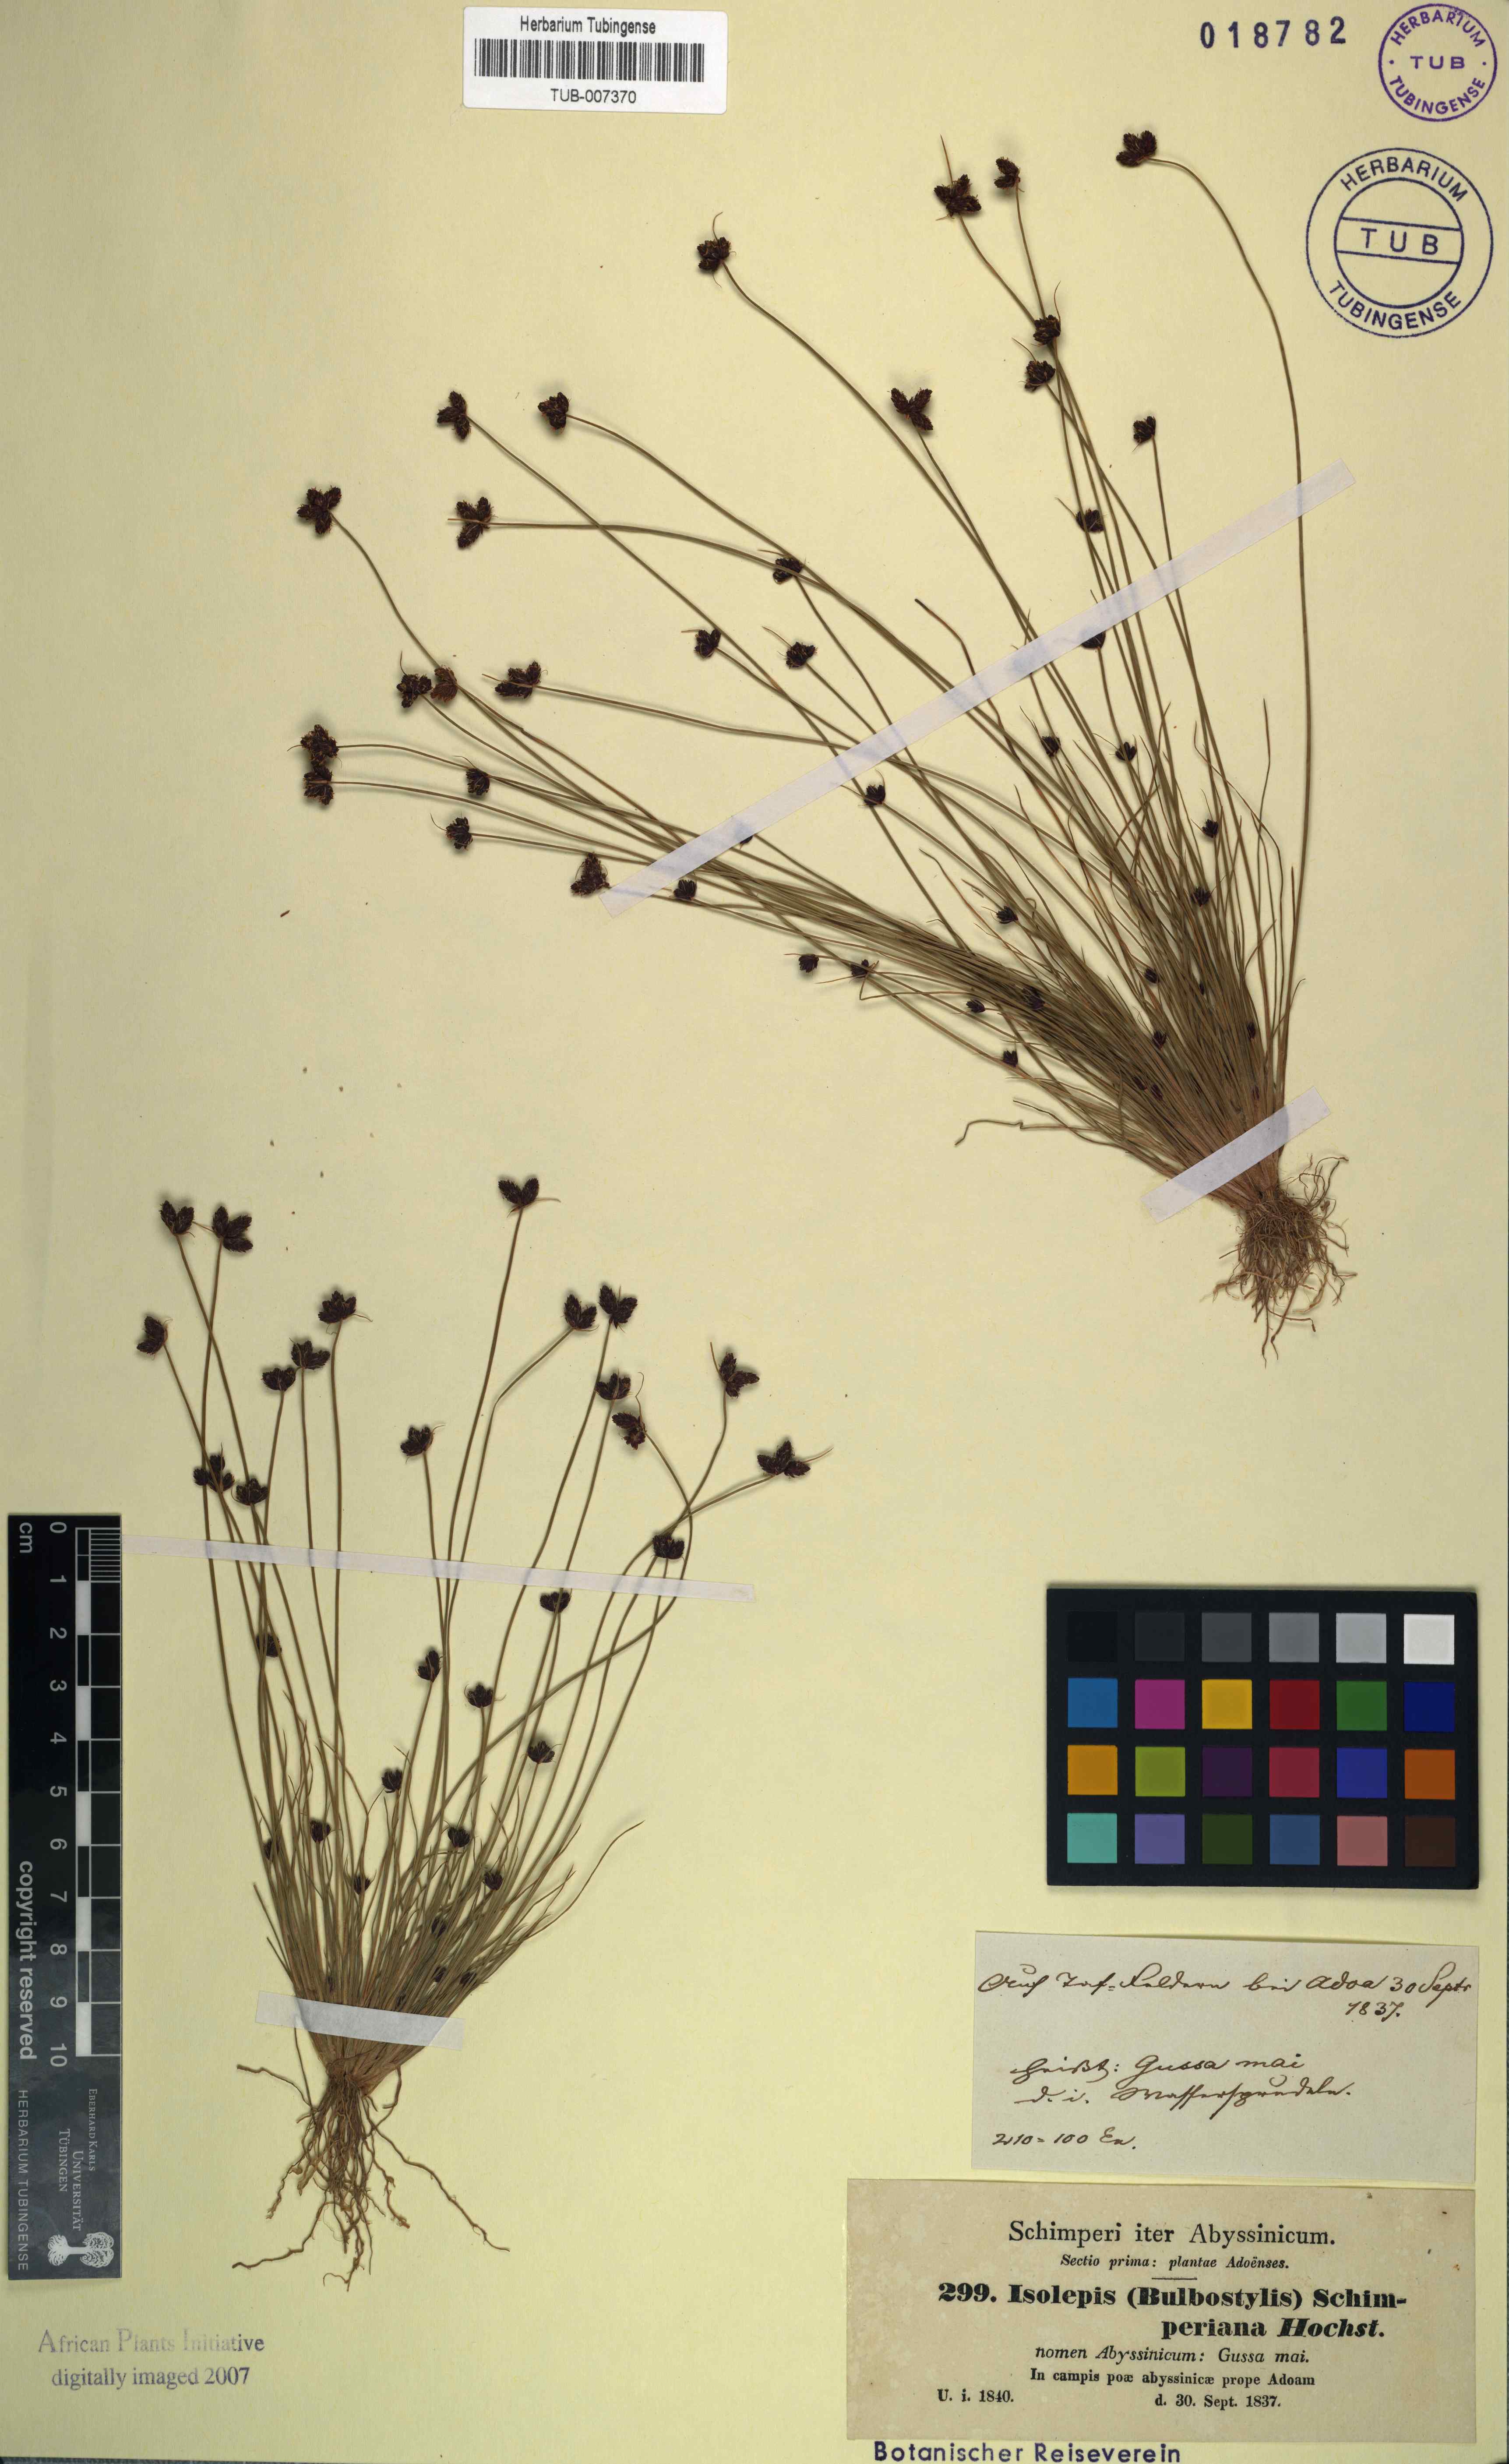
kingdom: Plantae
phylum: Tracheophyta
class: Liliopsida
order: Poales
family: Cyperaceae
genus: Bulbostylis
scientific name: Bulbostylis schimperiana
